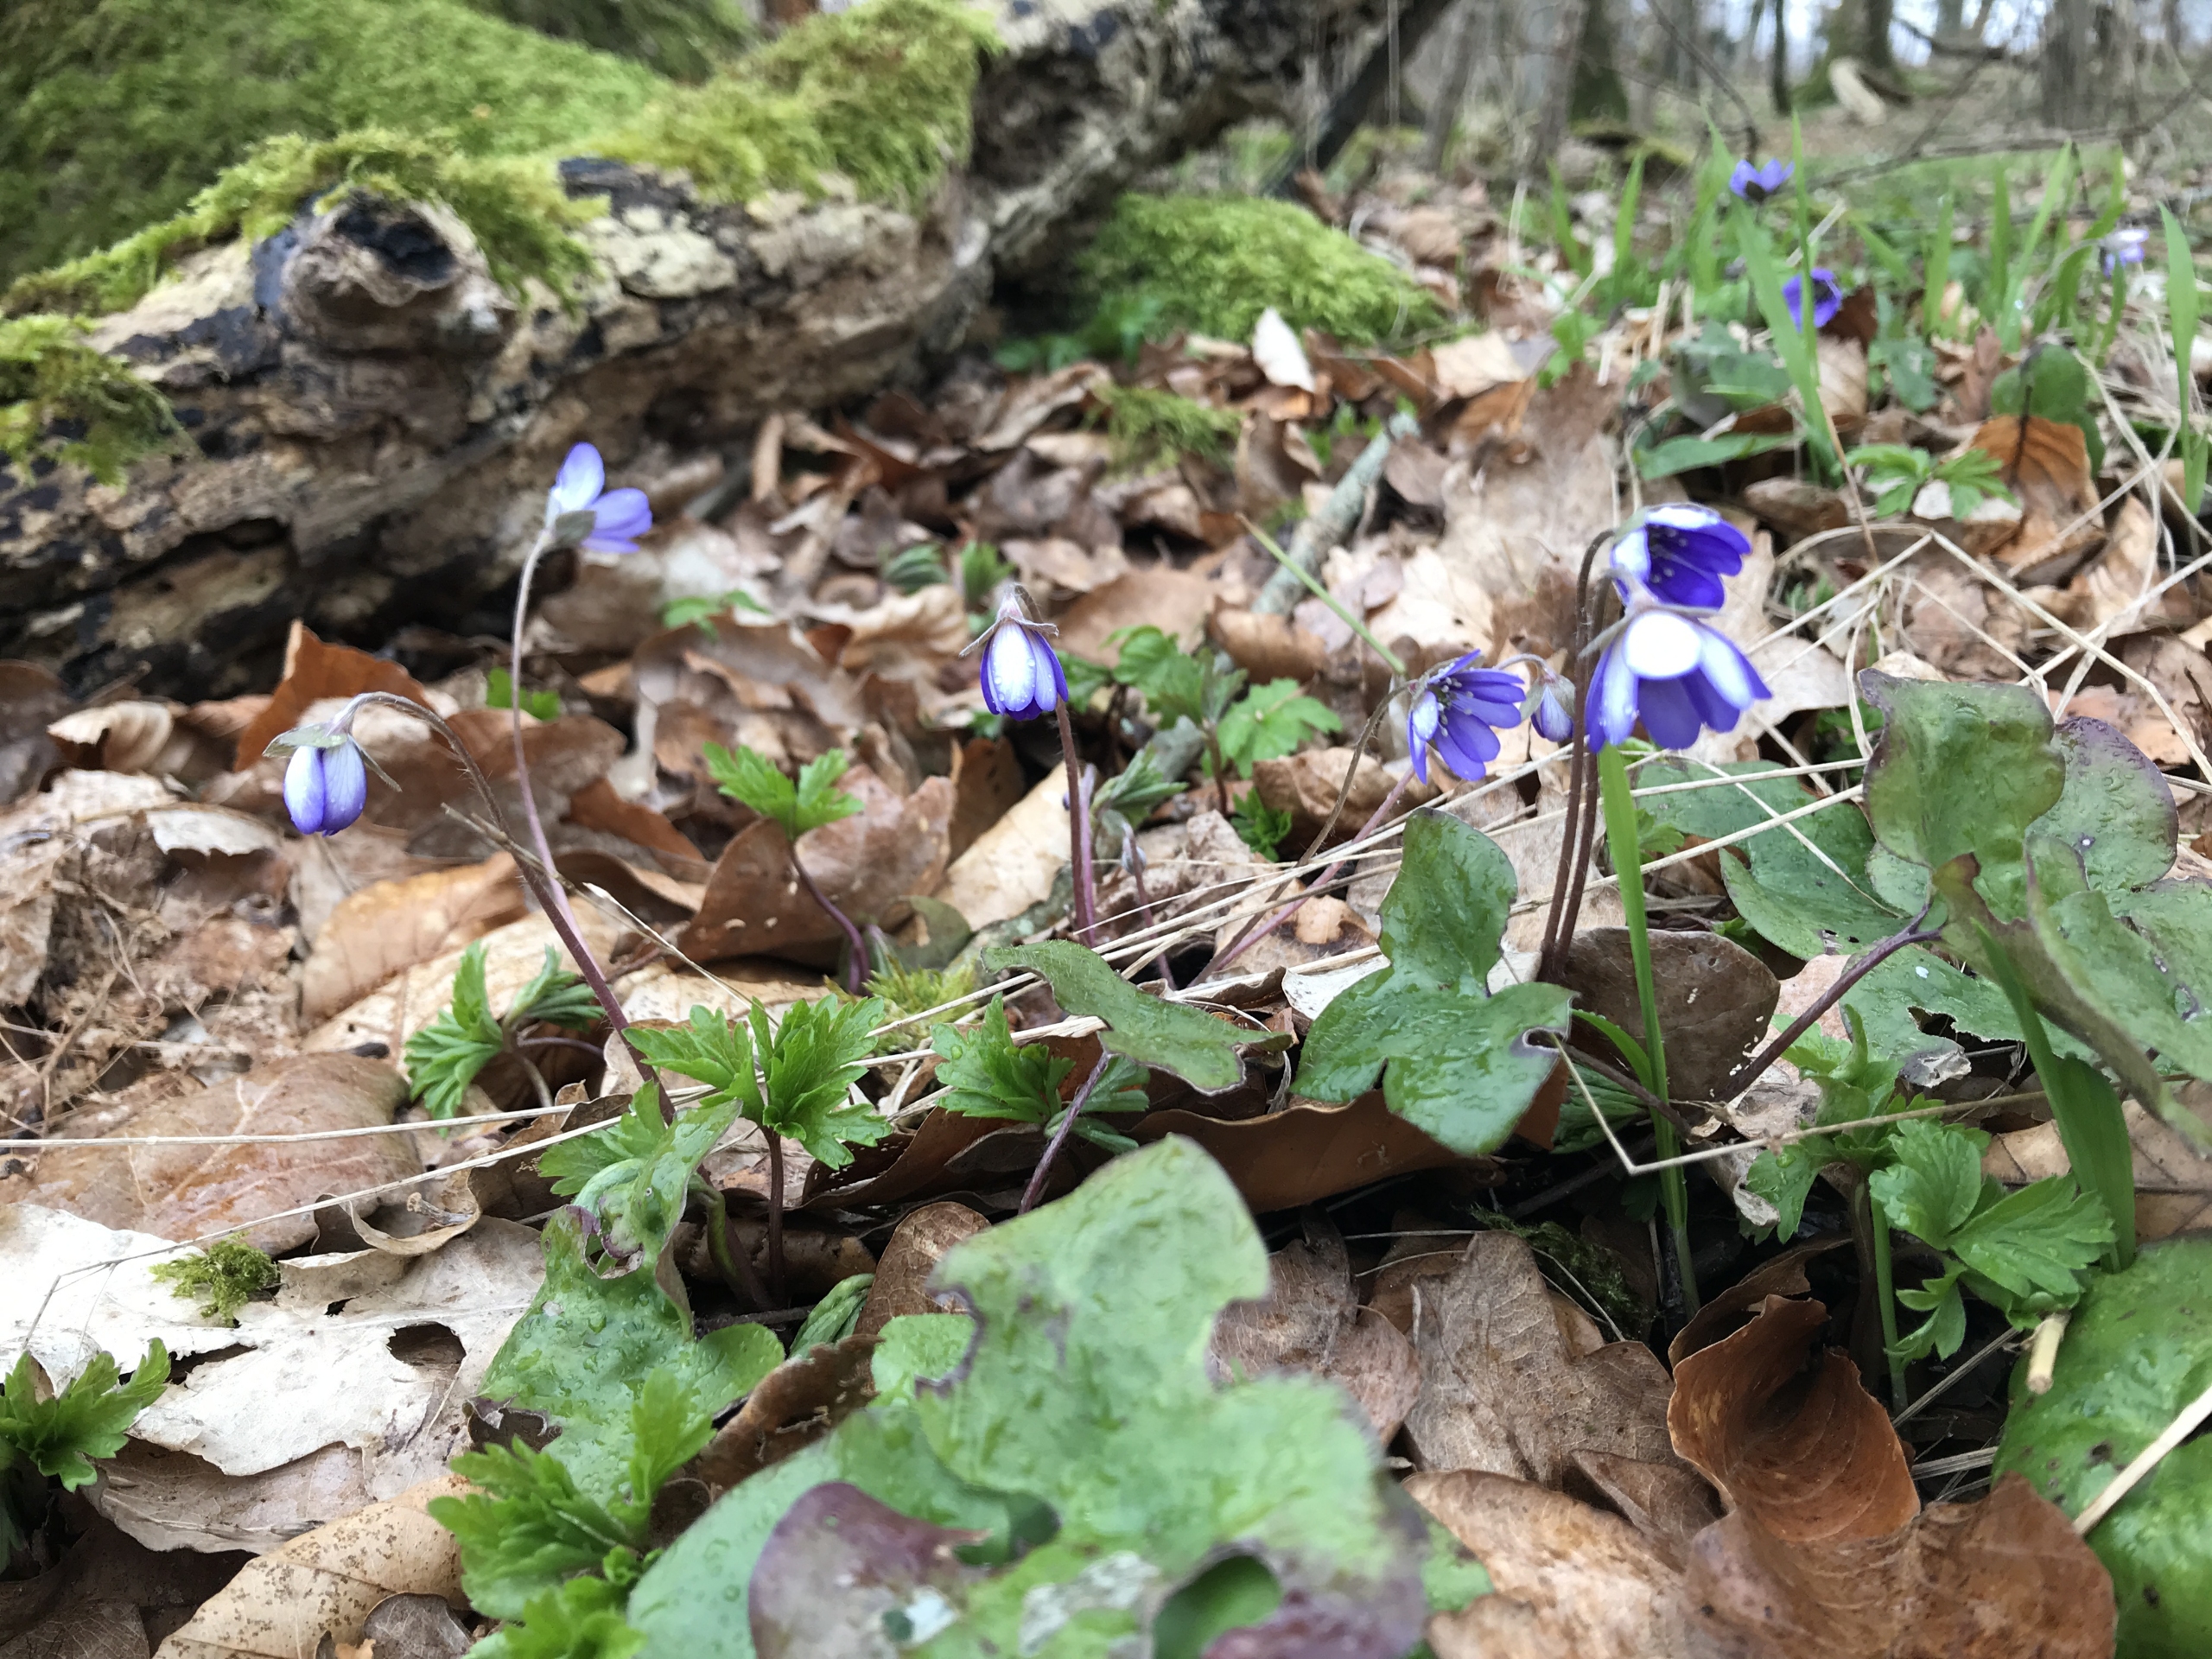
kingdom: Plantae
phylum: Tracheophyta
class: Magnoliopsida
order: Ranunculales
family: Ranunculaceae
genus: Hepatica
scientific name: Hepatica nobilis
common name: Blå anemone
